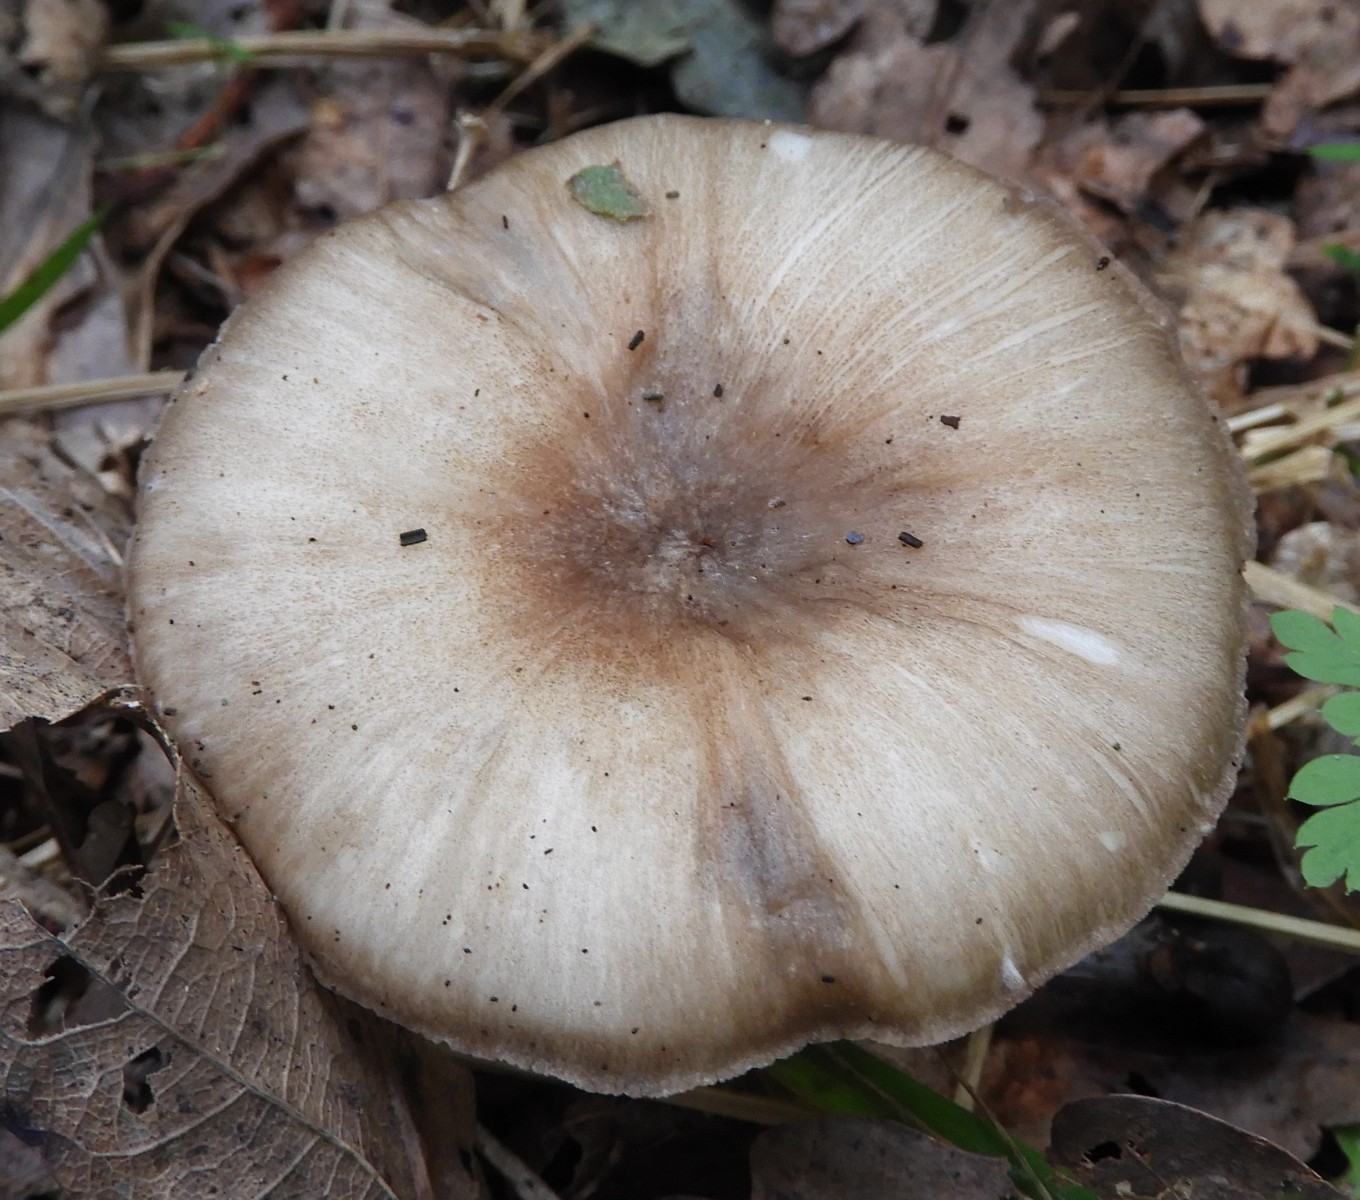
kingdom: Fungi
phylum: Basidiomycota
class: Agaricomycetes
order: Agaricales
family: Tricholomataceae
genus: Megacollybia
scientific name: Megacollybia platyphylla
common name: bredbladet væbnerhat
